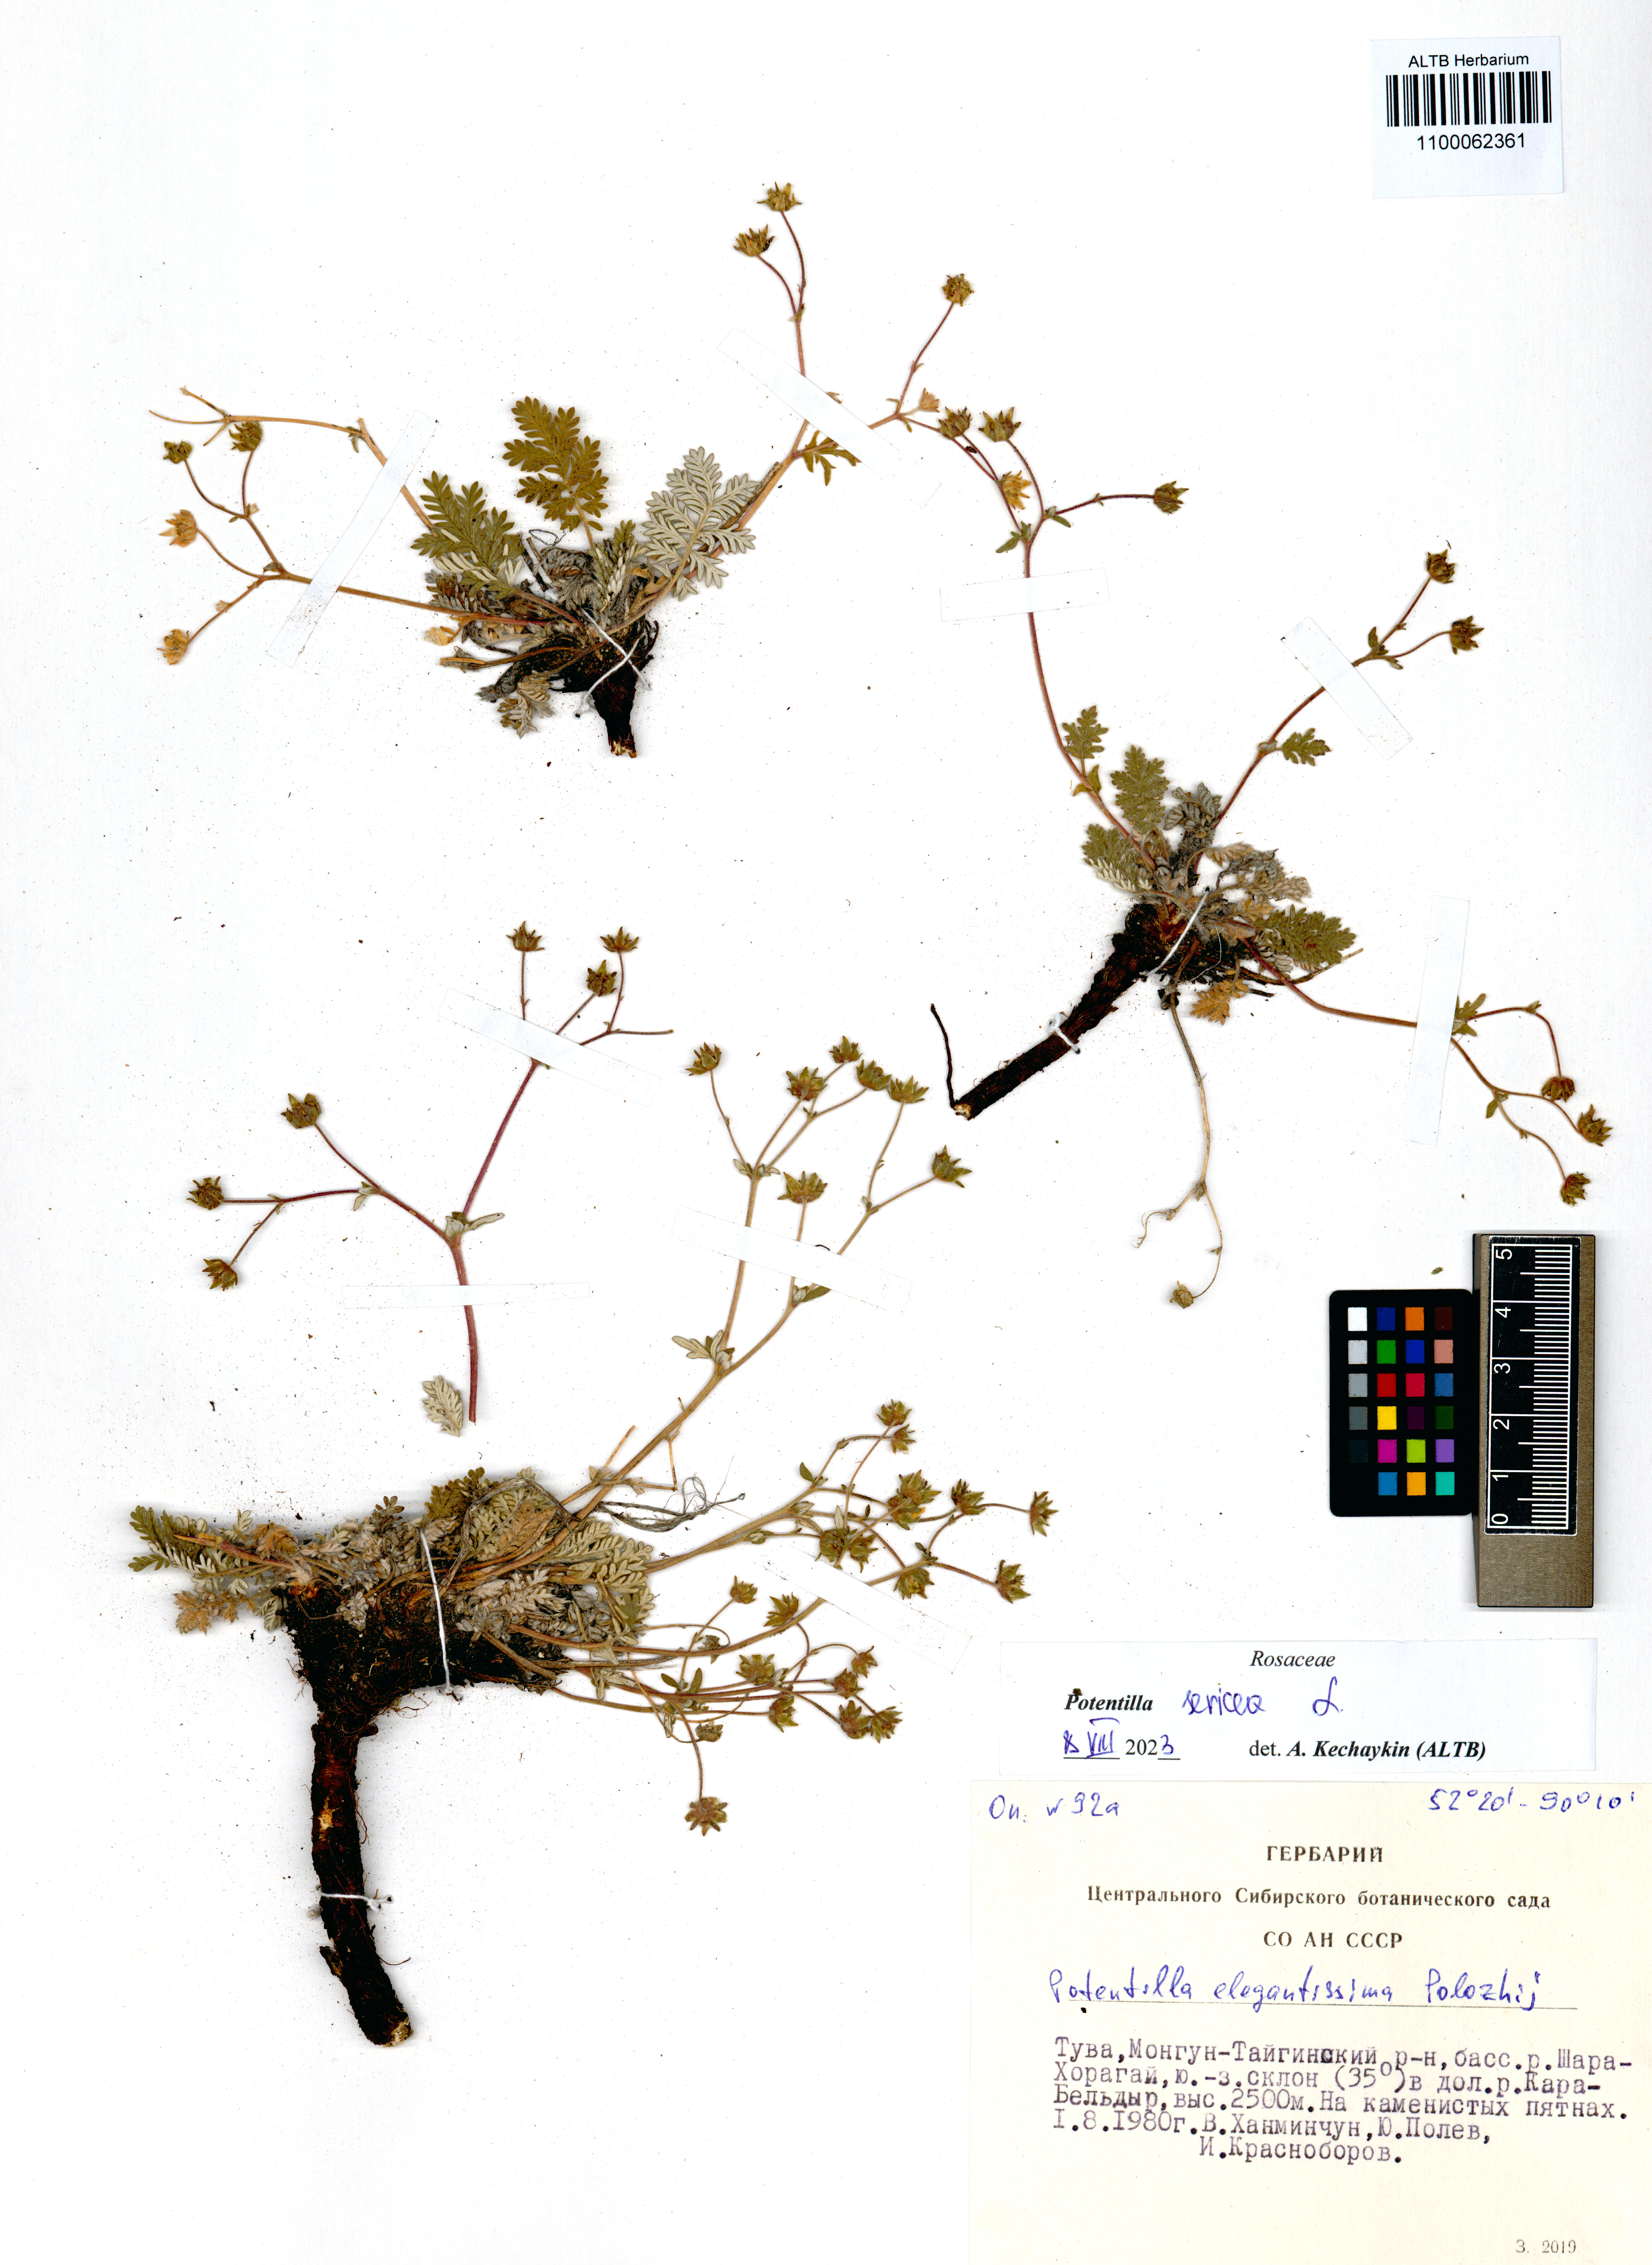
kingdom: Plantae
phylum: Tracheophyta
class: Magnoliopsida
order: Rosales
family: Rosaceae
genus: Potentilla
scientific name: Potentilla sericea
